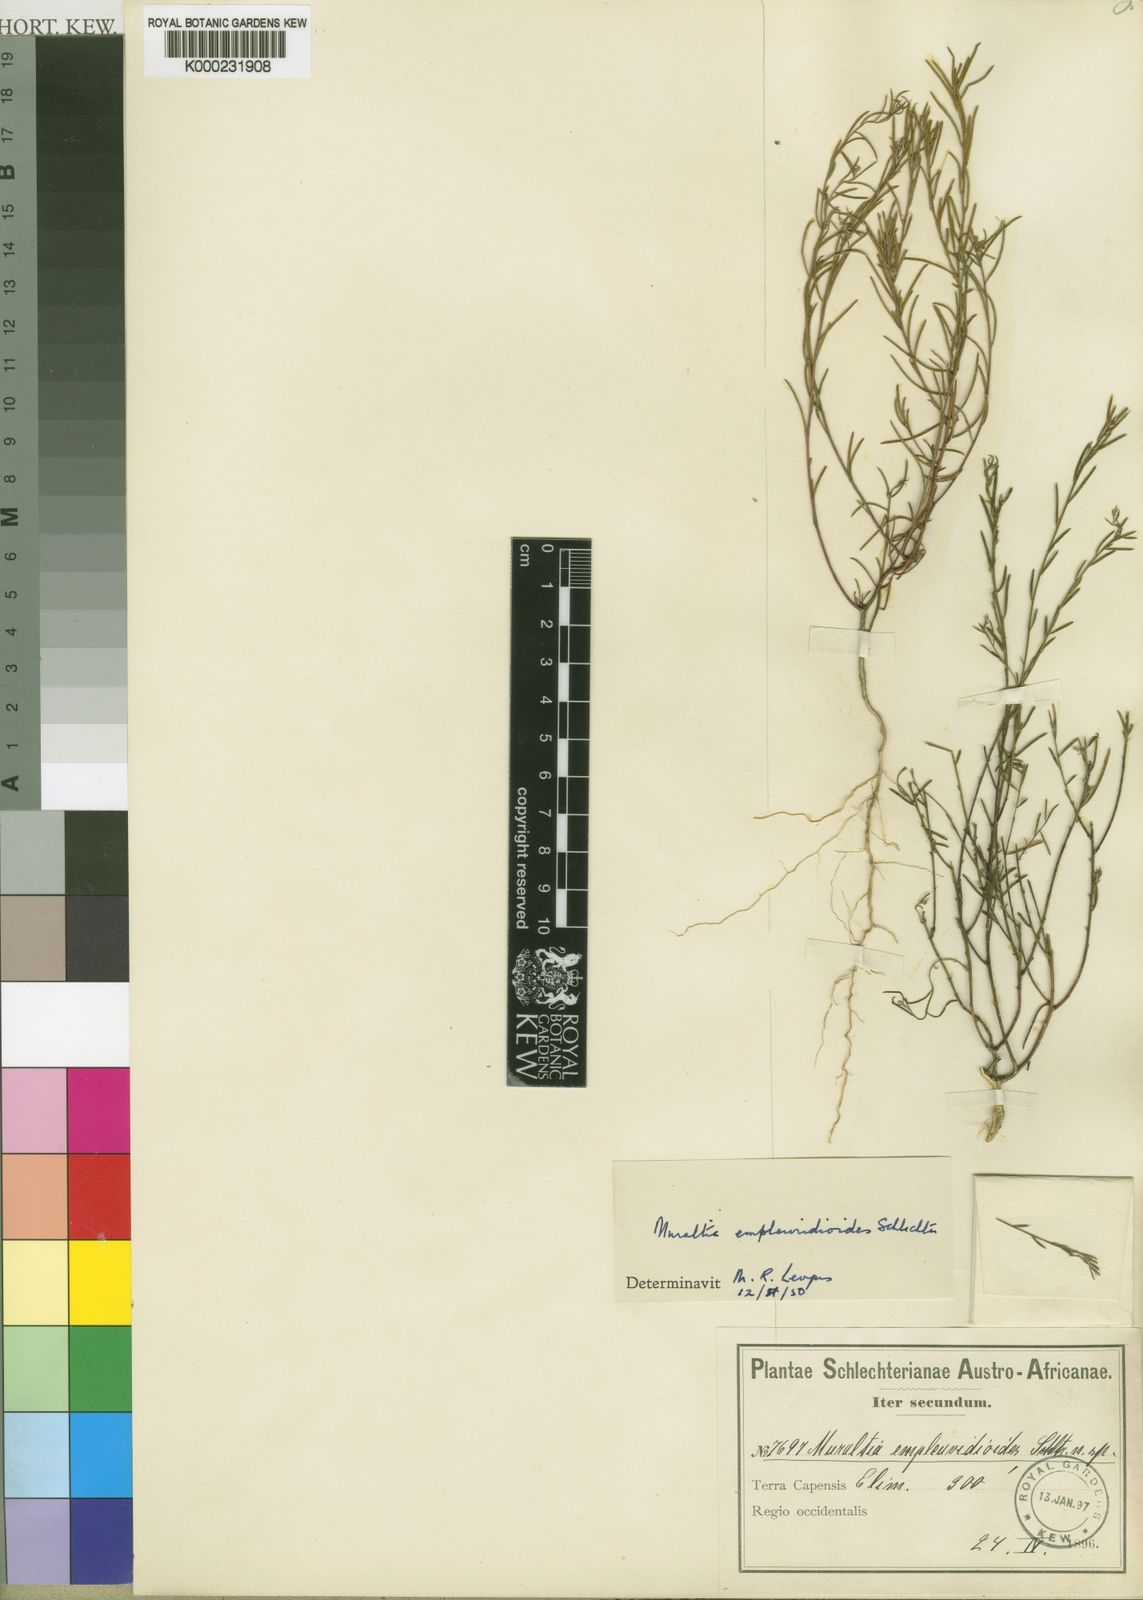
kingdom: Plantae
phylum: Tracheophyta
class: Magnoliopsida
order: Fabales
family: Polygalaceae
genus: Muraltia
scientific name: Muraltia empleuridioides
